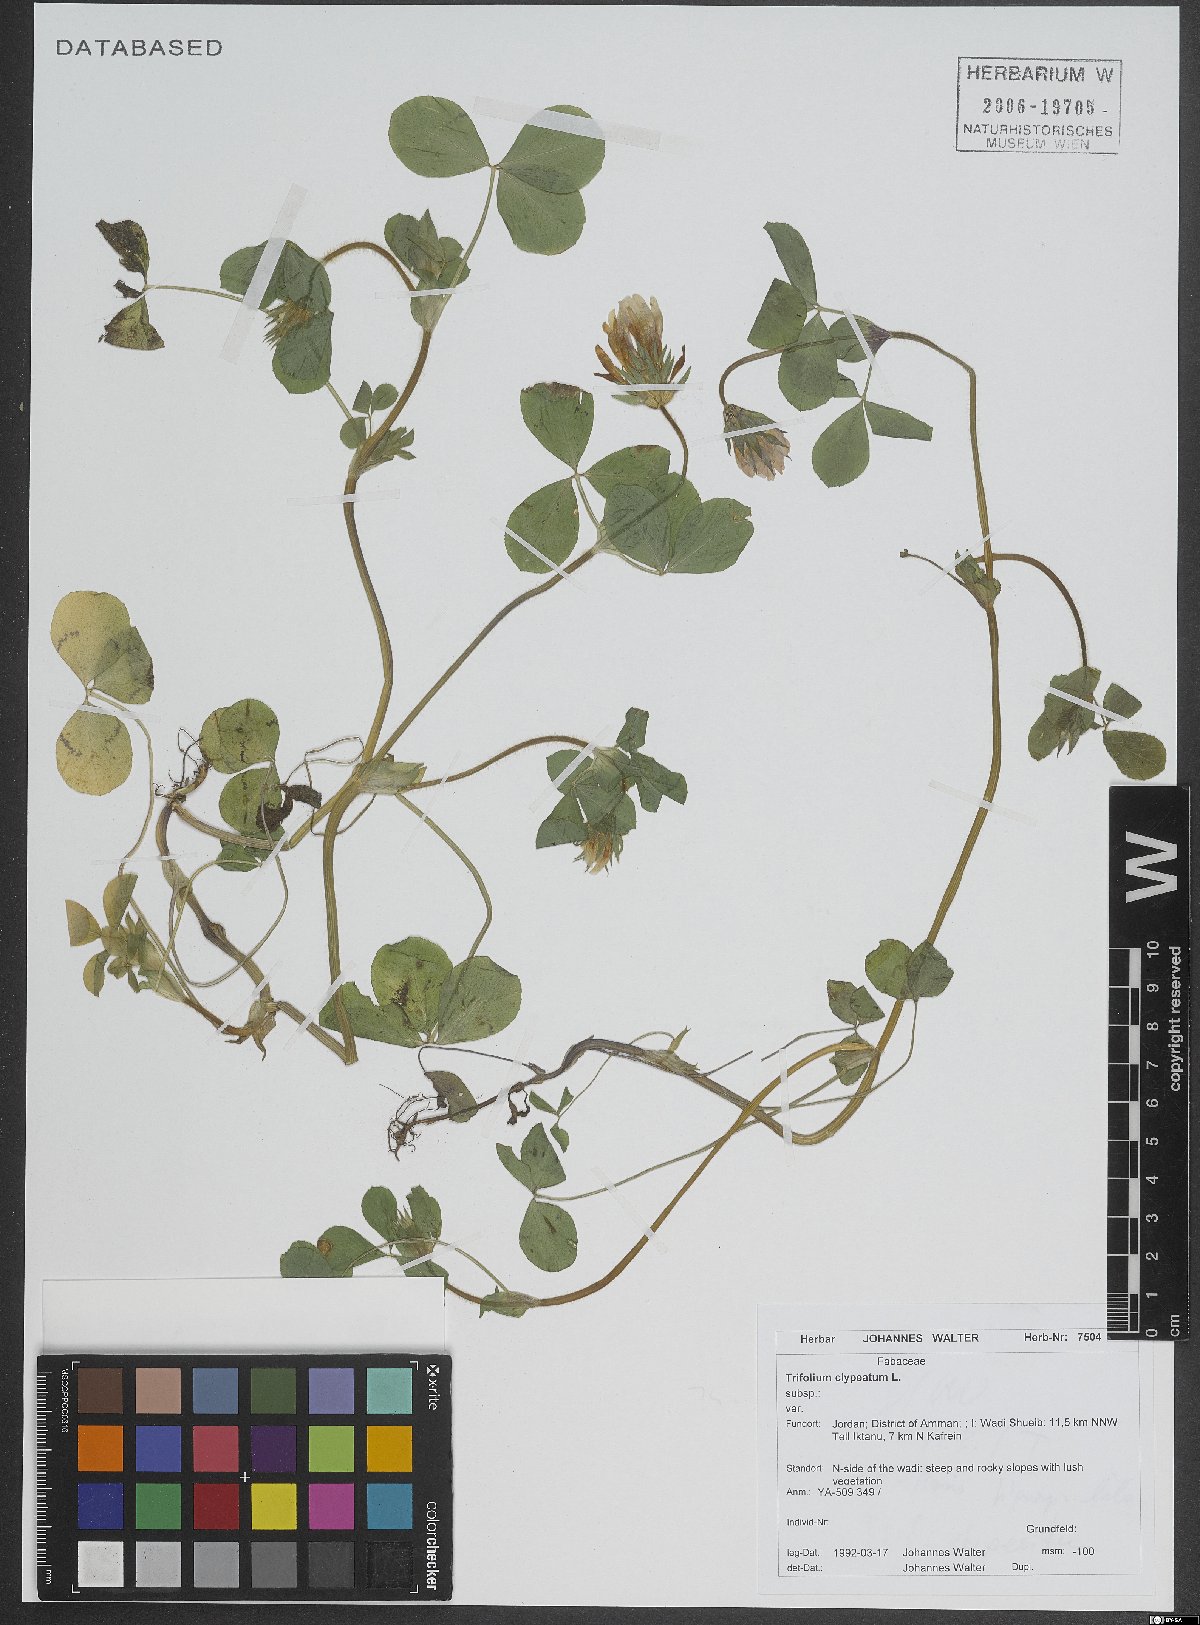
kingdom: Plantae
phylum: Tracheophyta
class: Magnoliopsida
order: Fabales
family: Fabaceae
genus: Trifolium
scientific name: Trifolium clypeatum
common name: Shield clover
